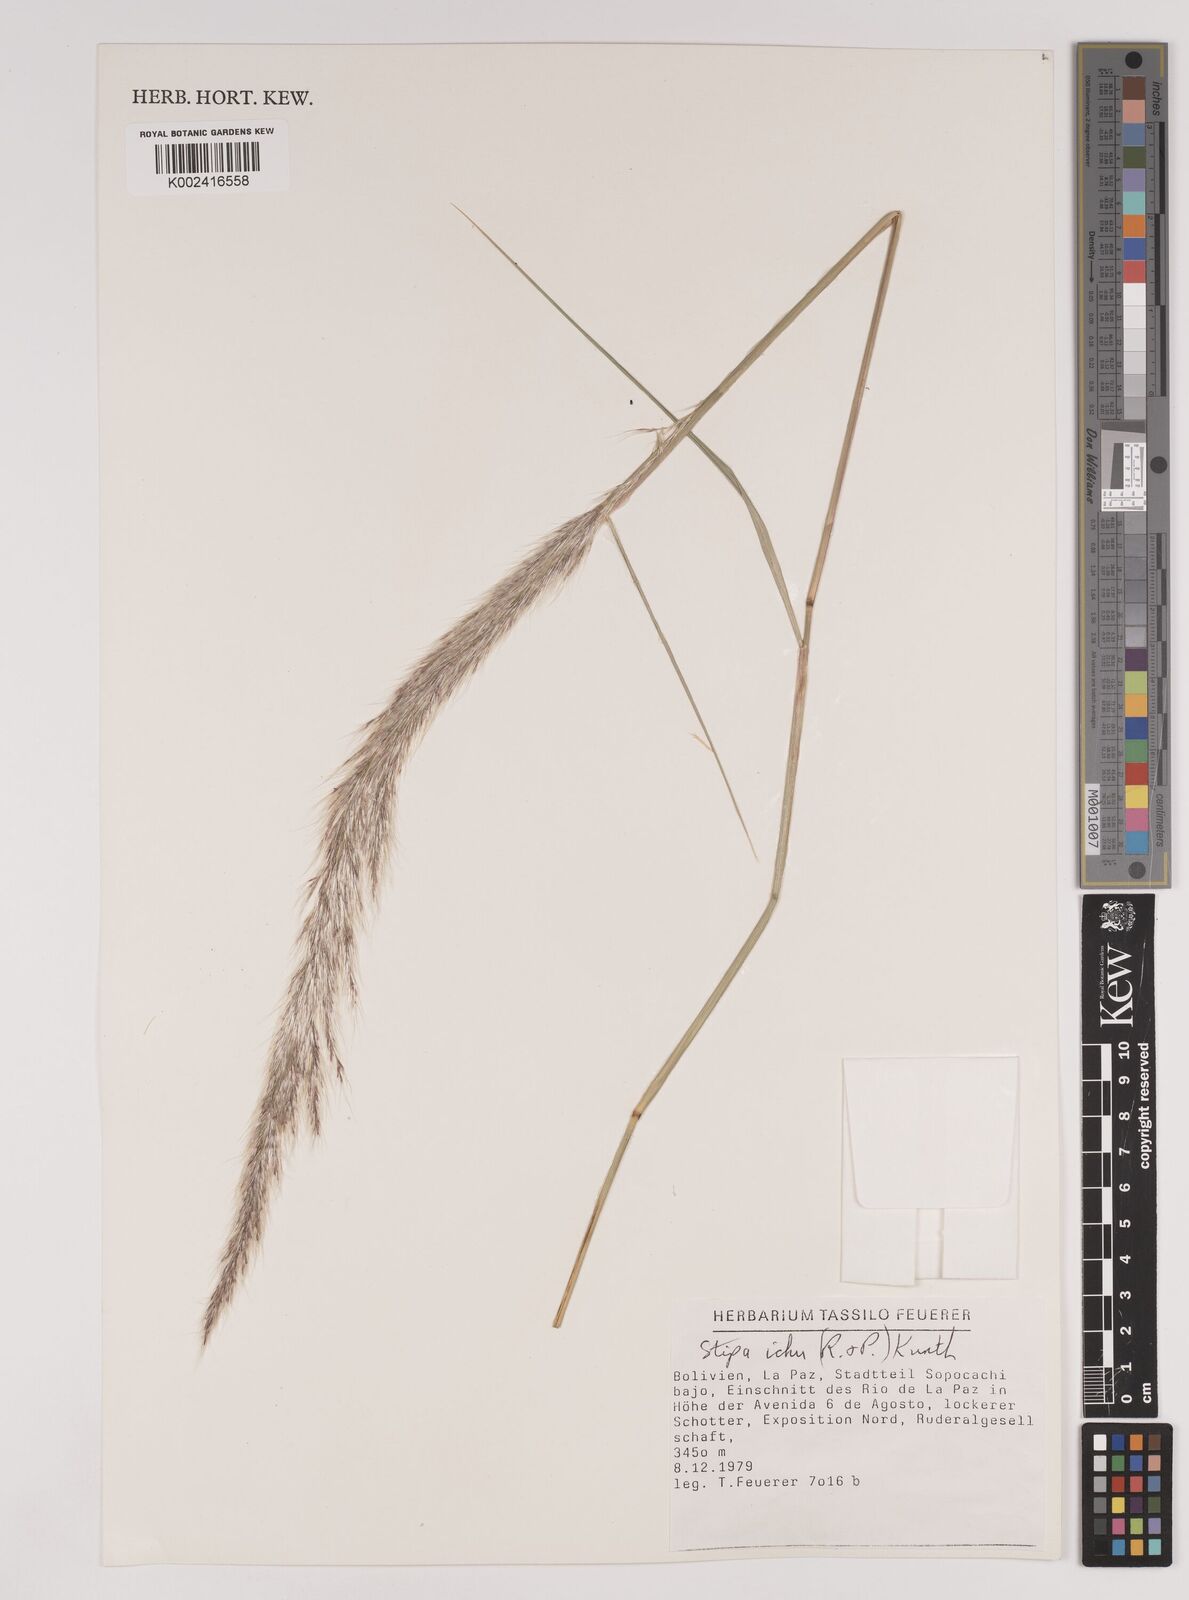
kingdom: Plantae
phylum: Tracheophyta
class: Liliopsida
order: Poales
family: Poaceae
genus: Jarava
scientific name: Jarava pseudoichu
